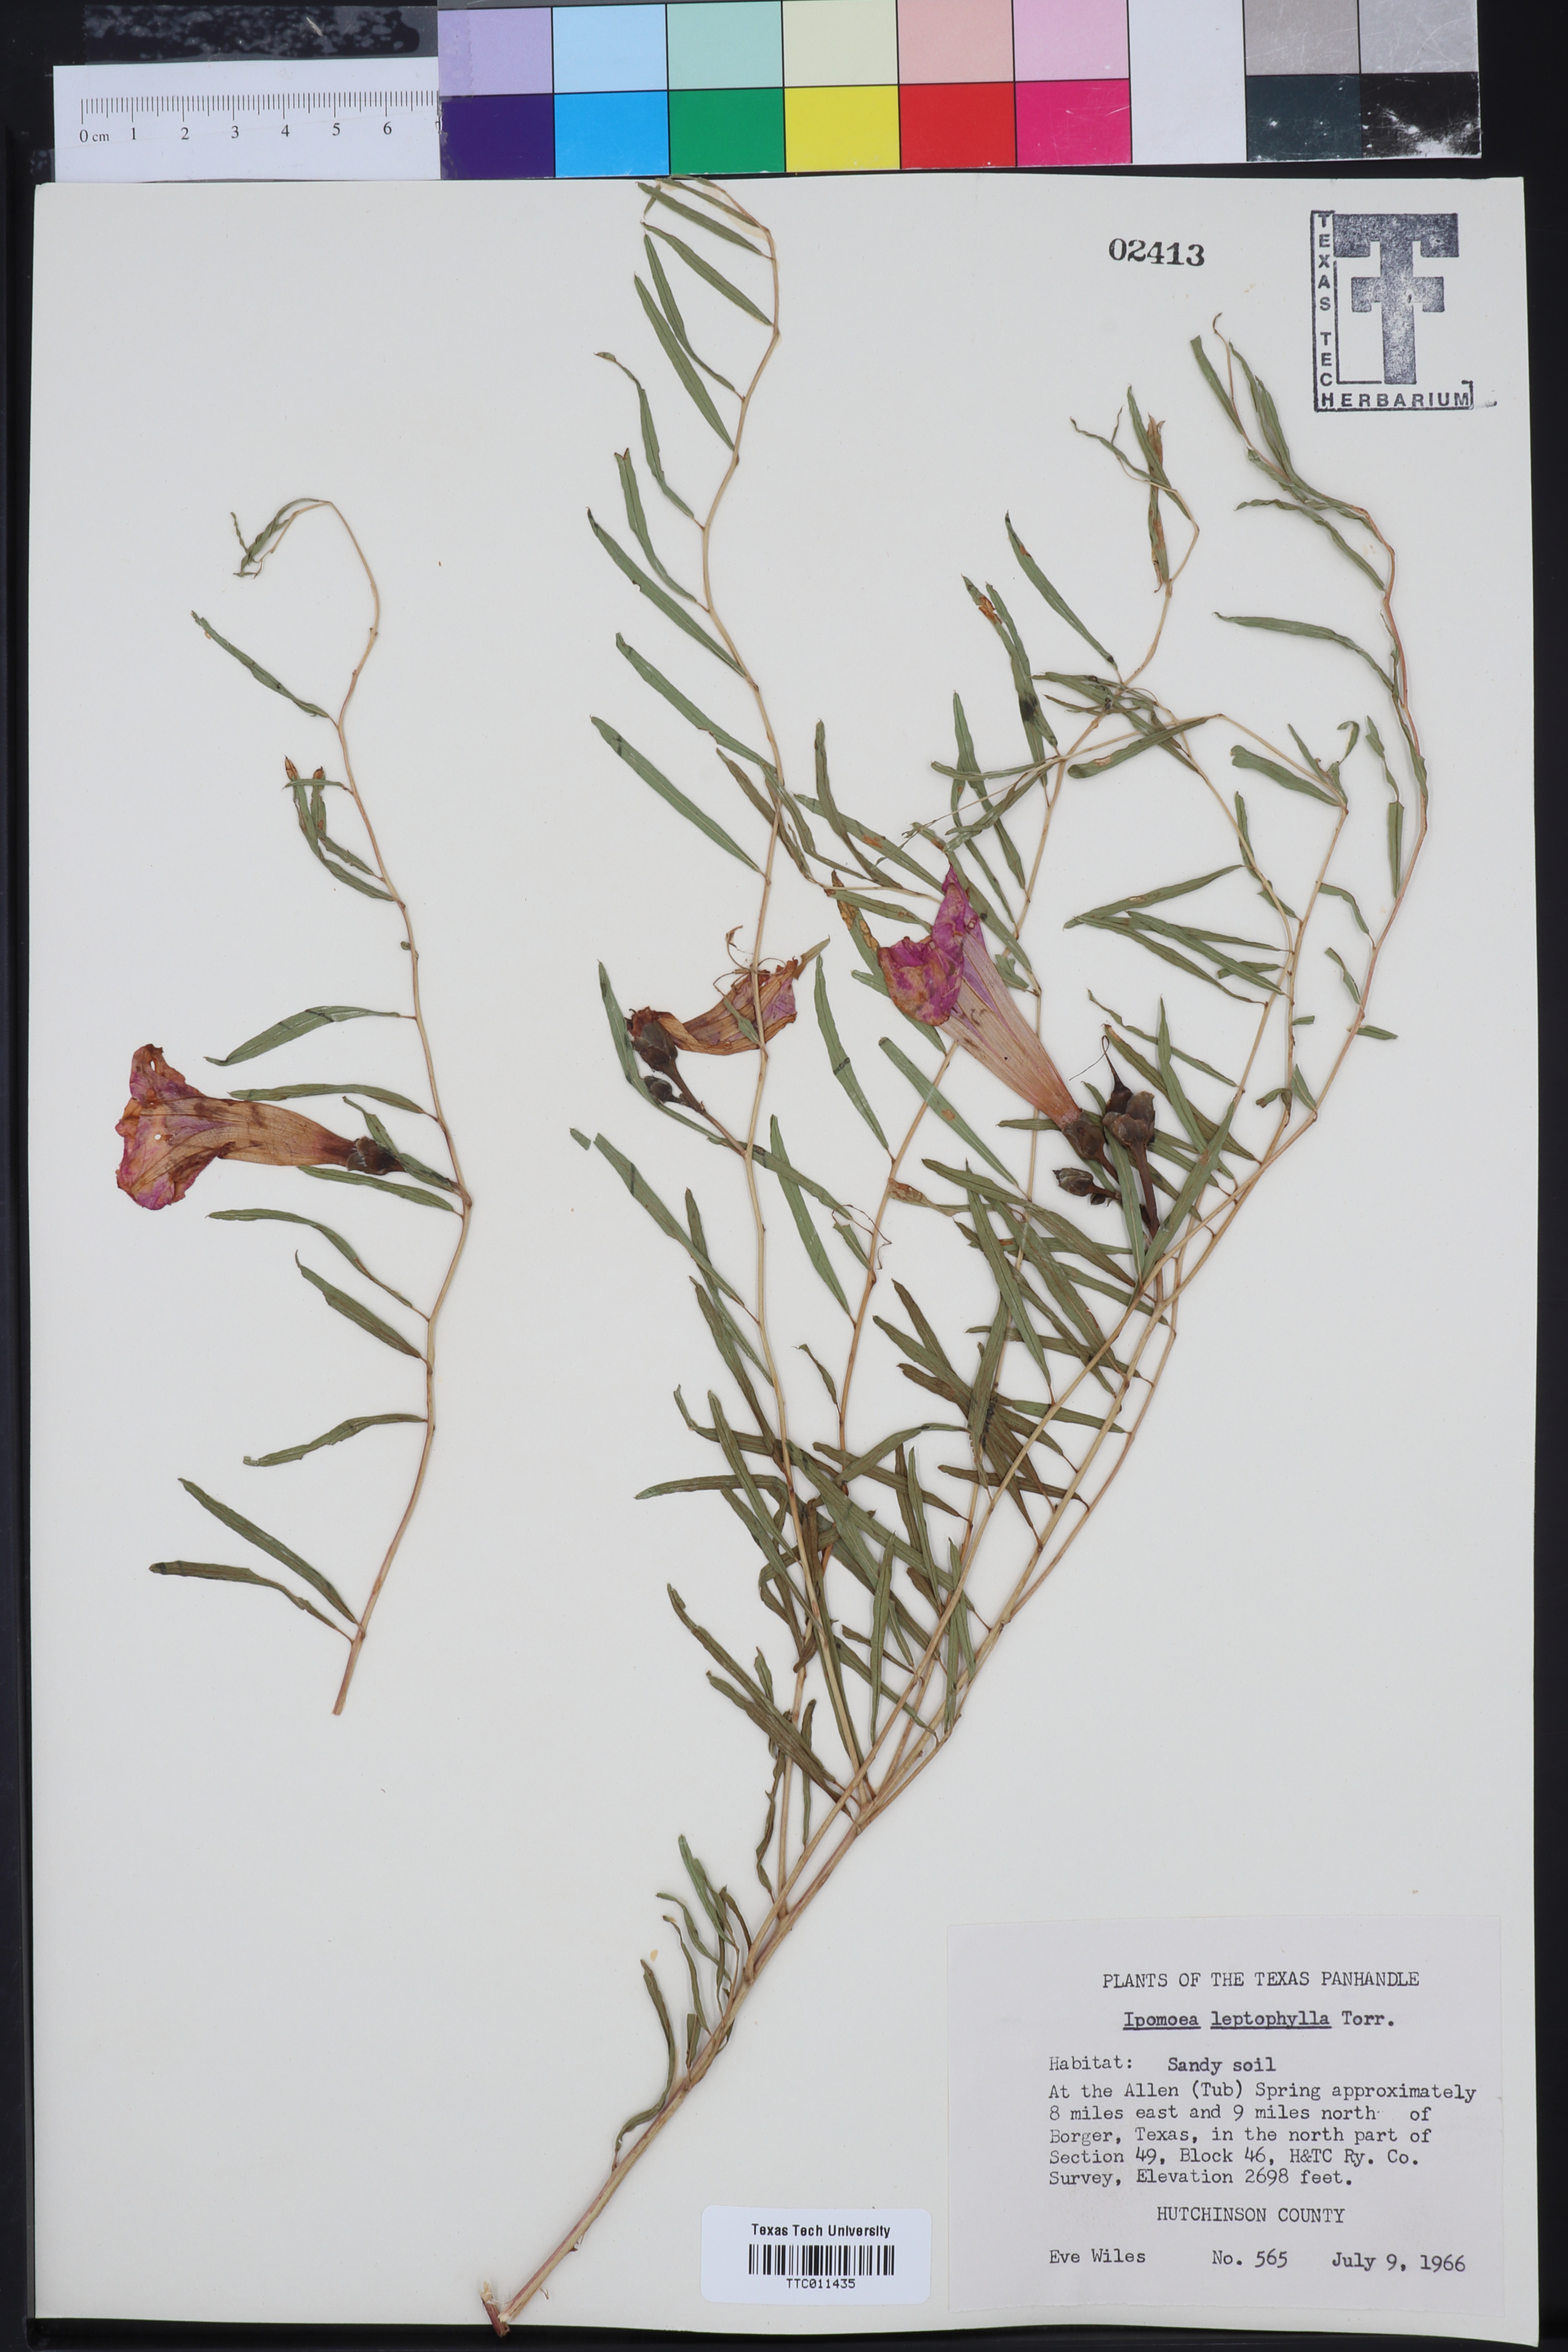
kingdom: Plantae
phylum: Tracheophyta
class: Magnoliopsida
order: Solanales
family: Convolvulaceae
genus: Ipomoea
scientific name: Ipomoea leptophylla
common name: Bush moonflower
